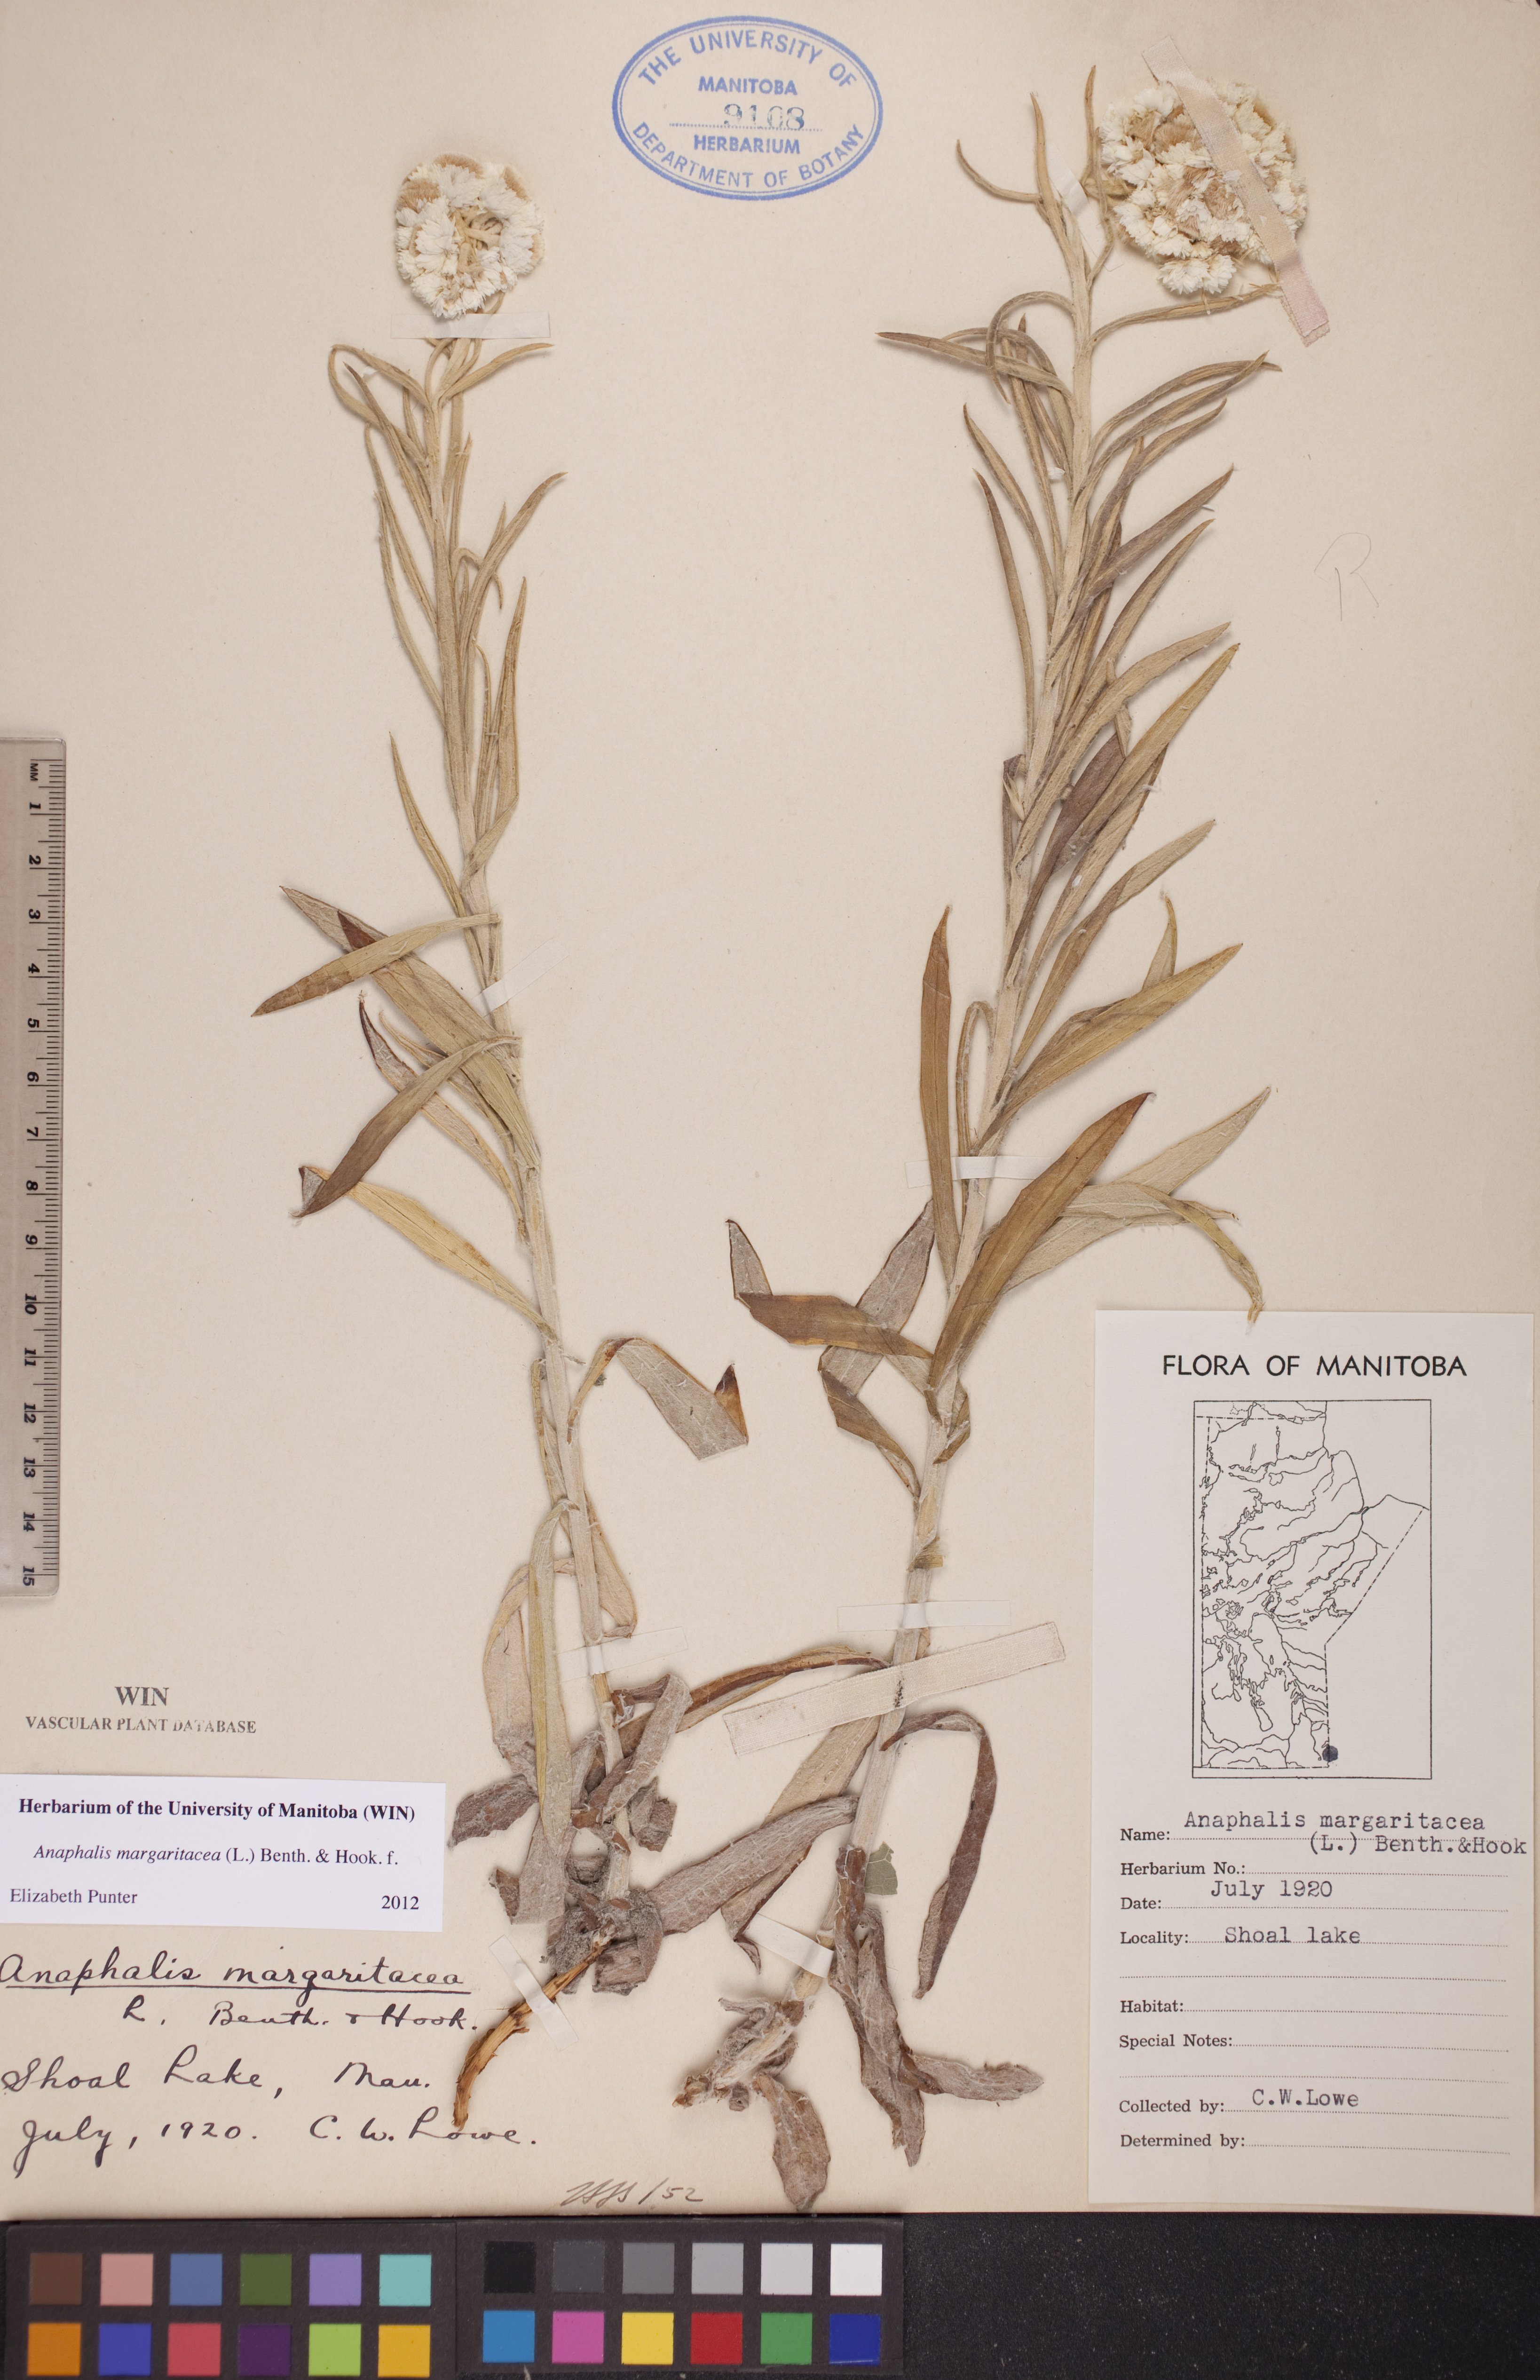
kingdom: Plantae
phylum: Tracheophyta
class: Magnoliopsida
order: Asterales
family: Asteraceae
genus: Anaphalis
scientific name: Anaphalis margaritacea
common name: Pearly everlasting
